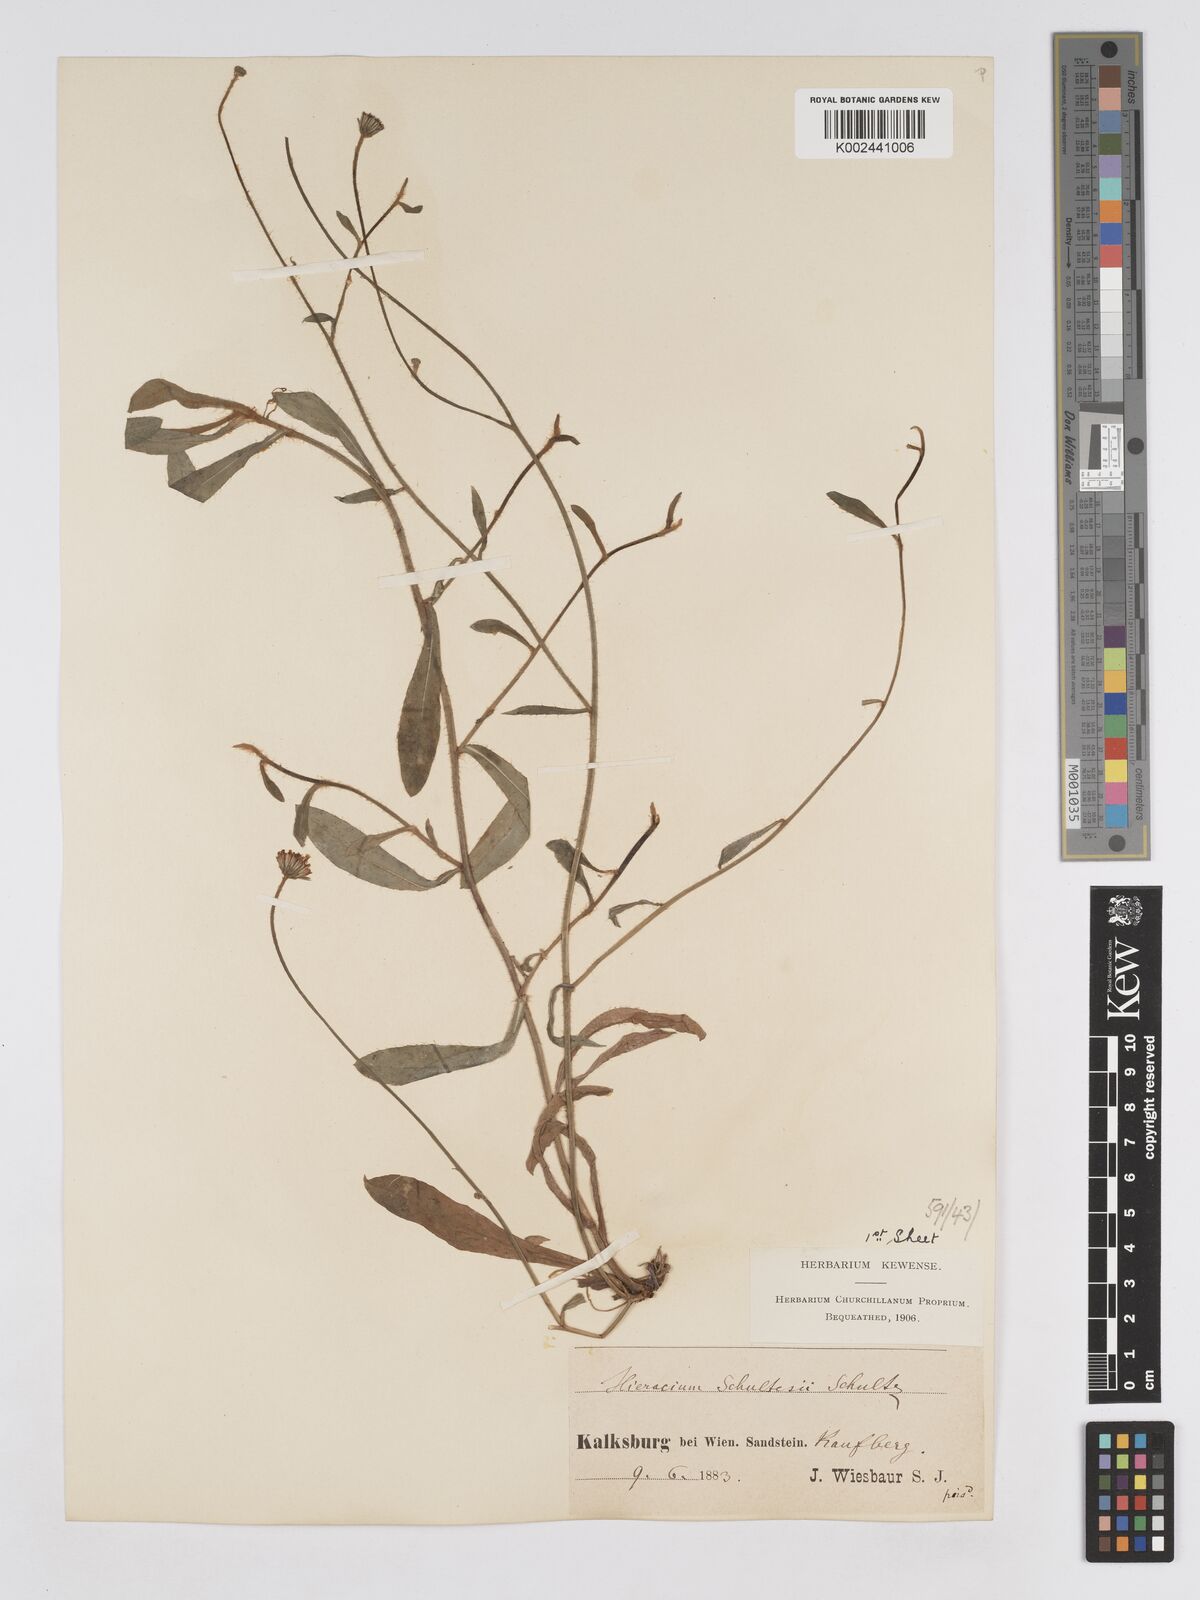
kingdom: Plantae
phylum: Tracheophyta
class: Magnoliopsida
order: Asterales
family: Asteraceae
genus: Pilosella
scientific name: Pilosella schultesii
